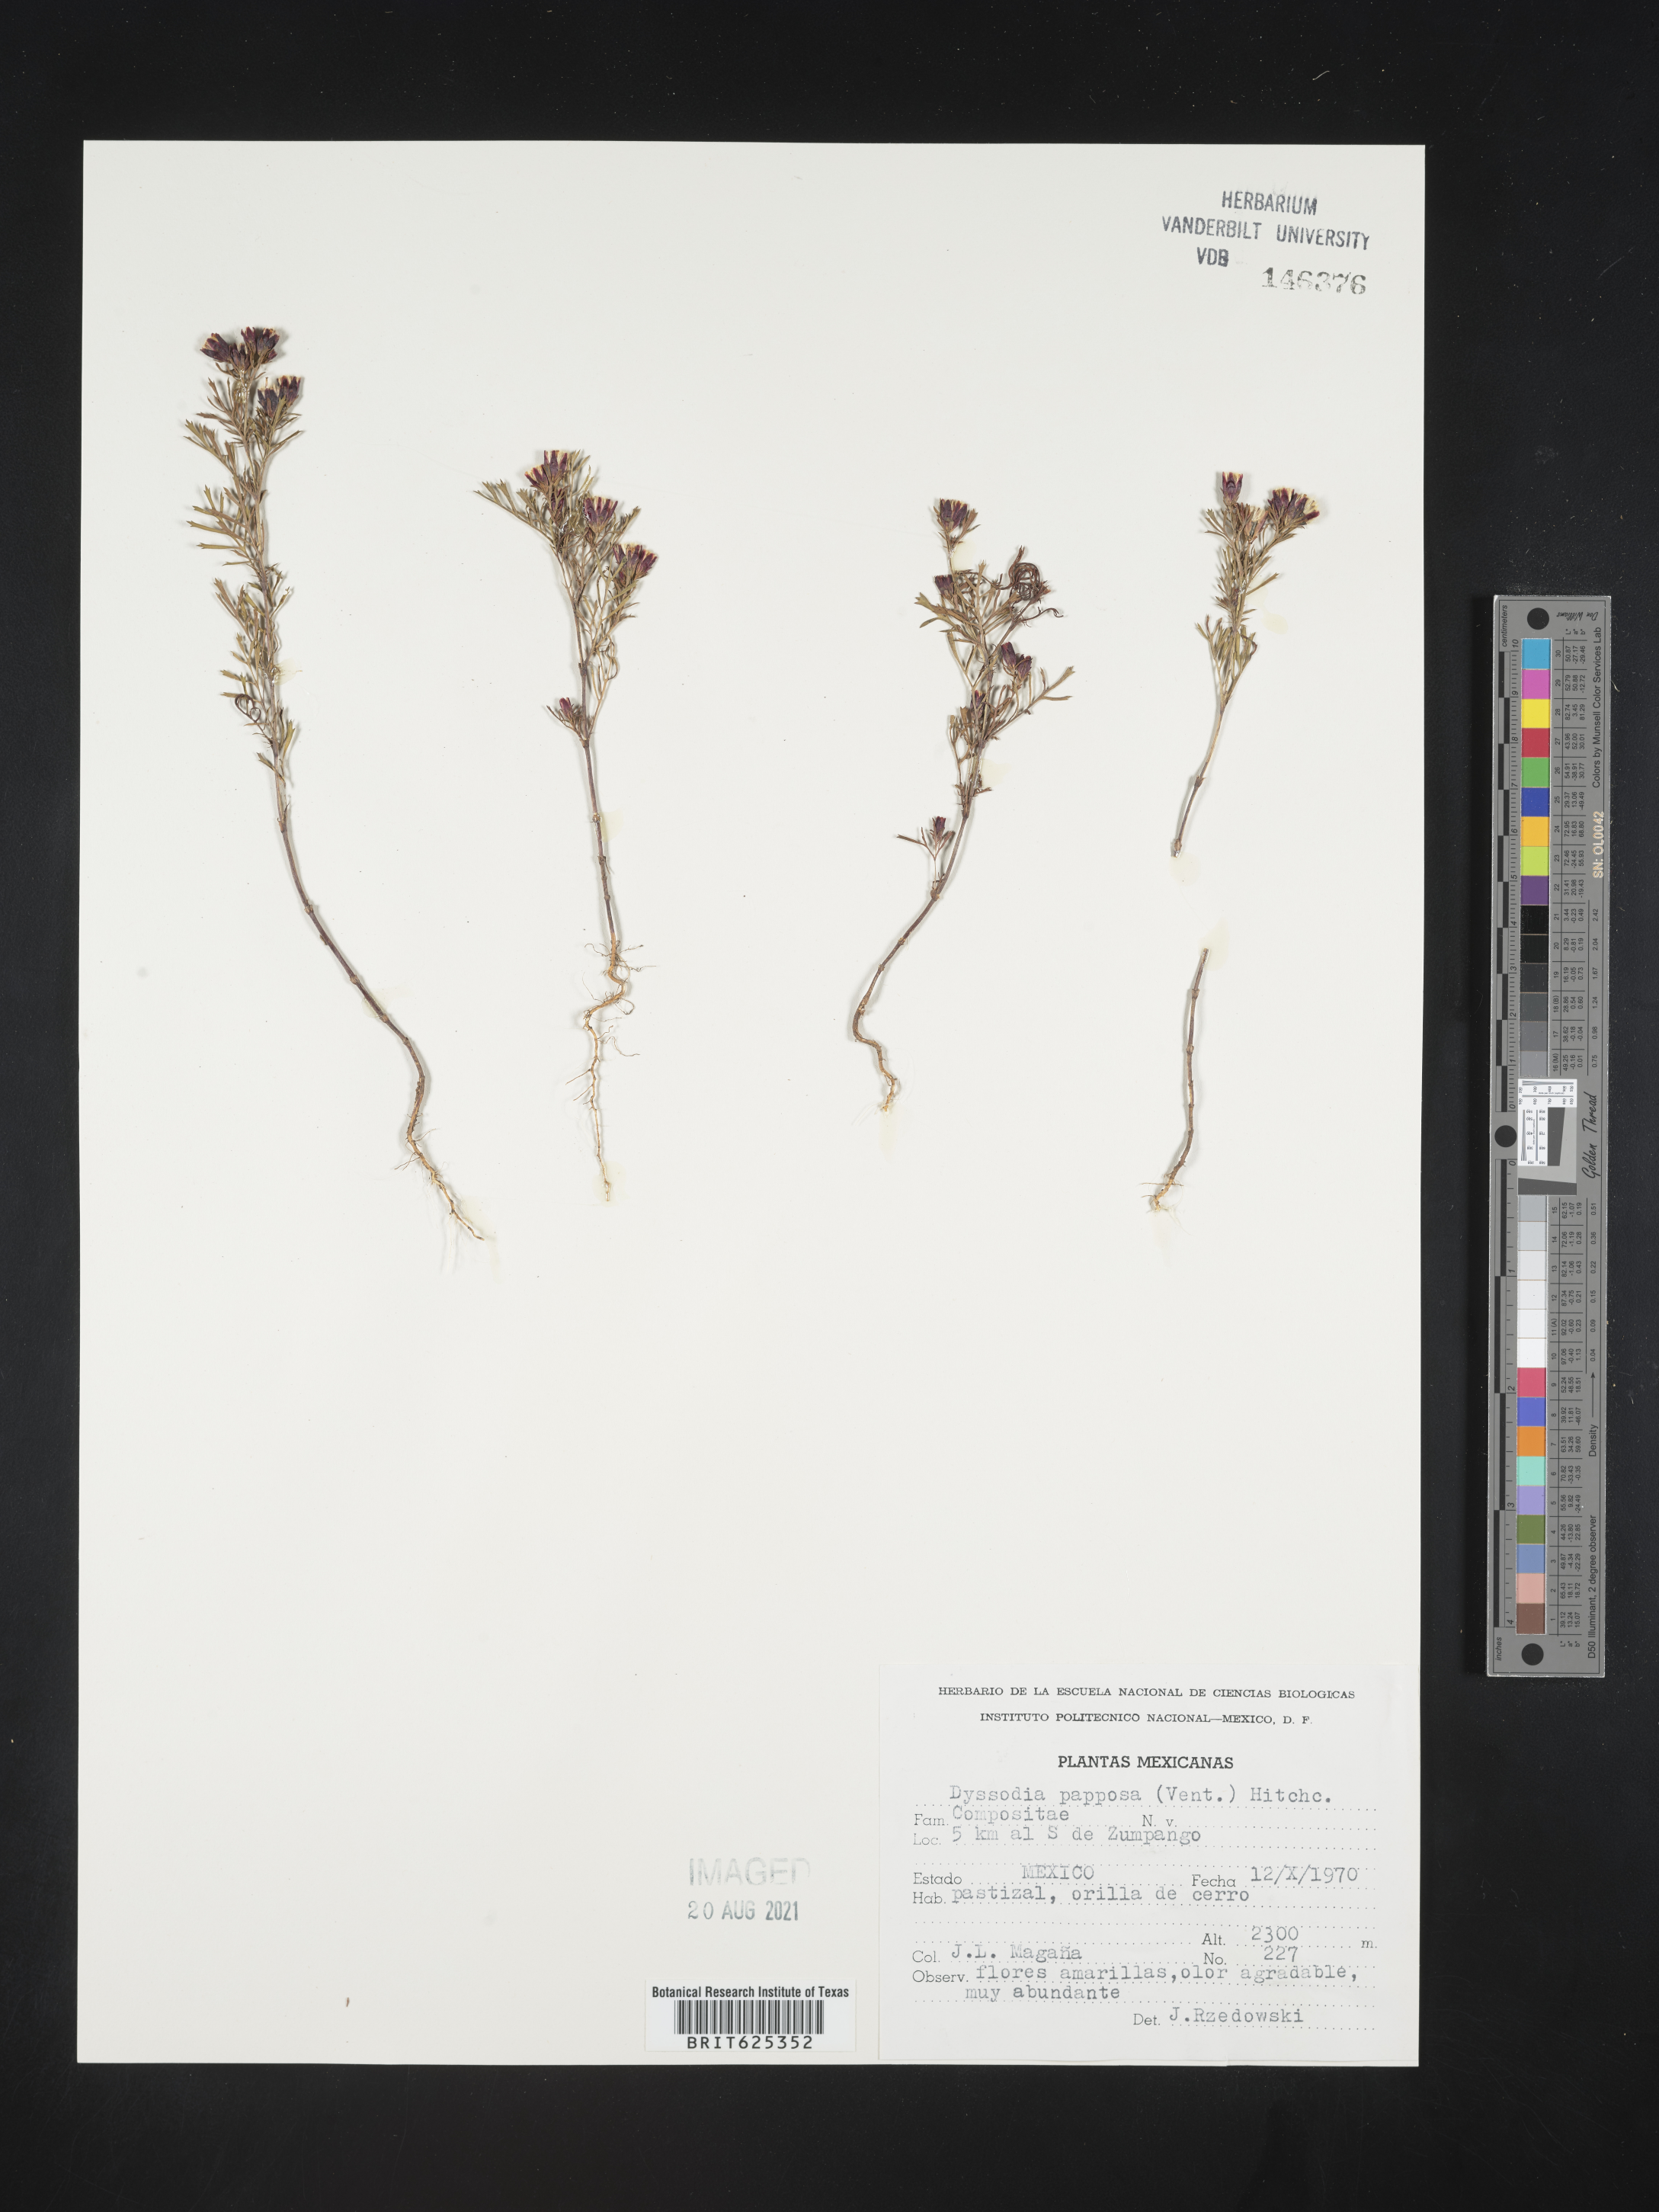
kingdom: Plantae
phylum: Tracheophyta
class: Magnoliopsida
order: Asterales
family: Asteraceae
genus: Dyssodia
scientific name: Dyssodia
